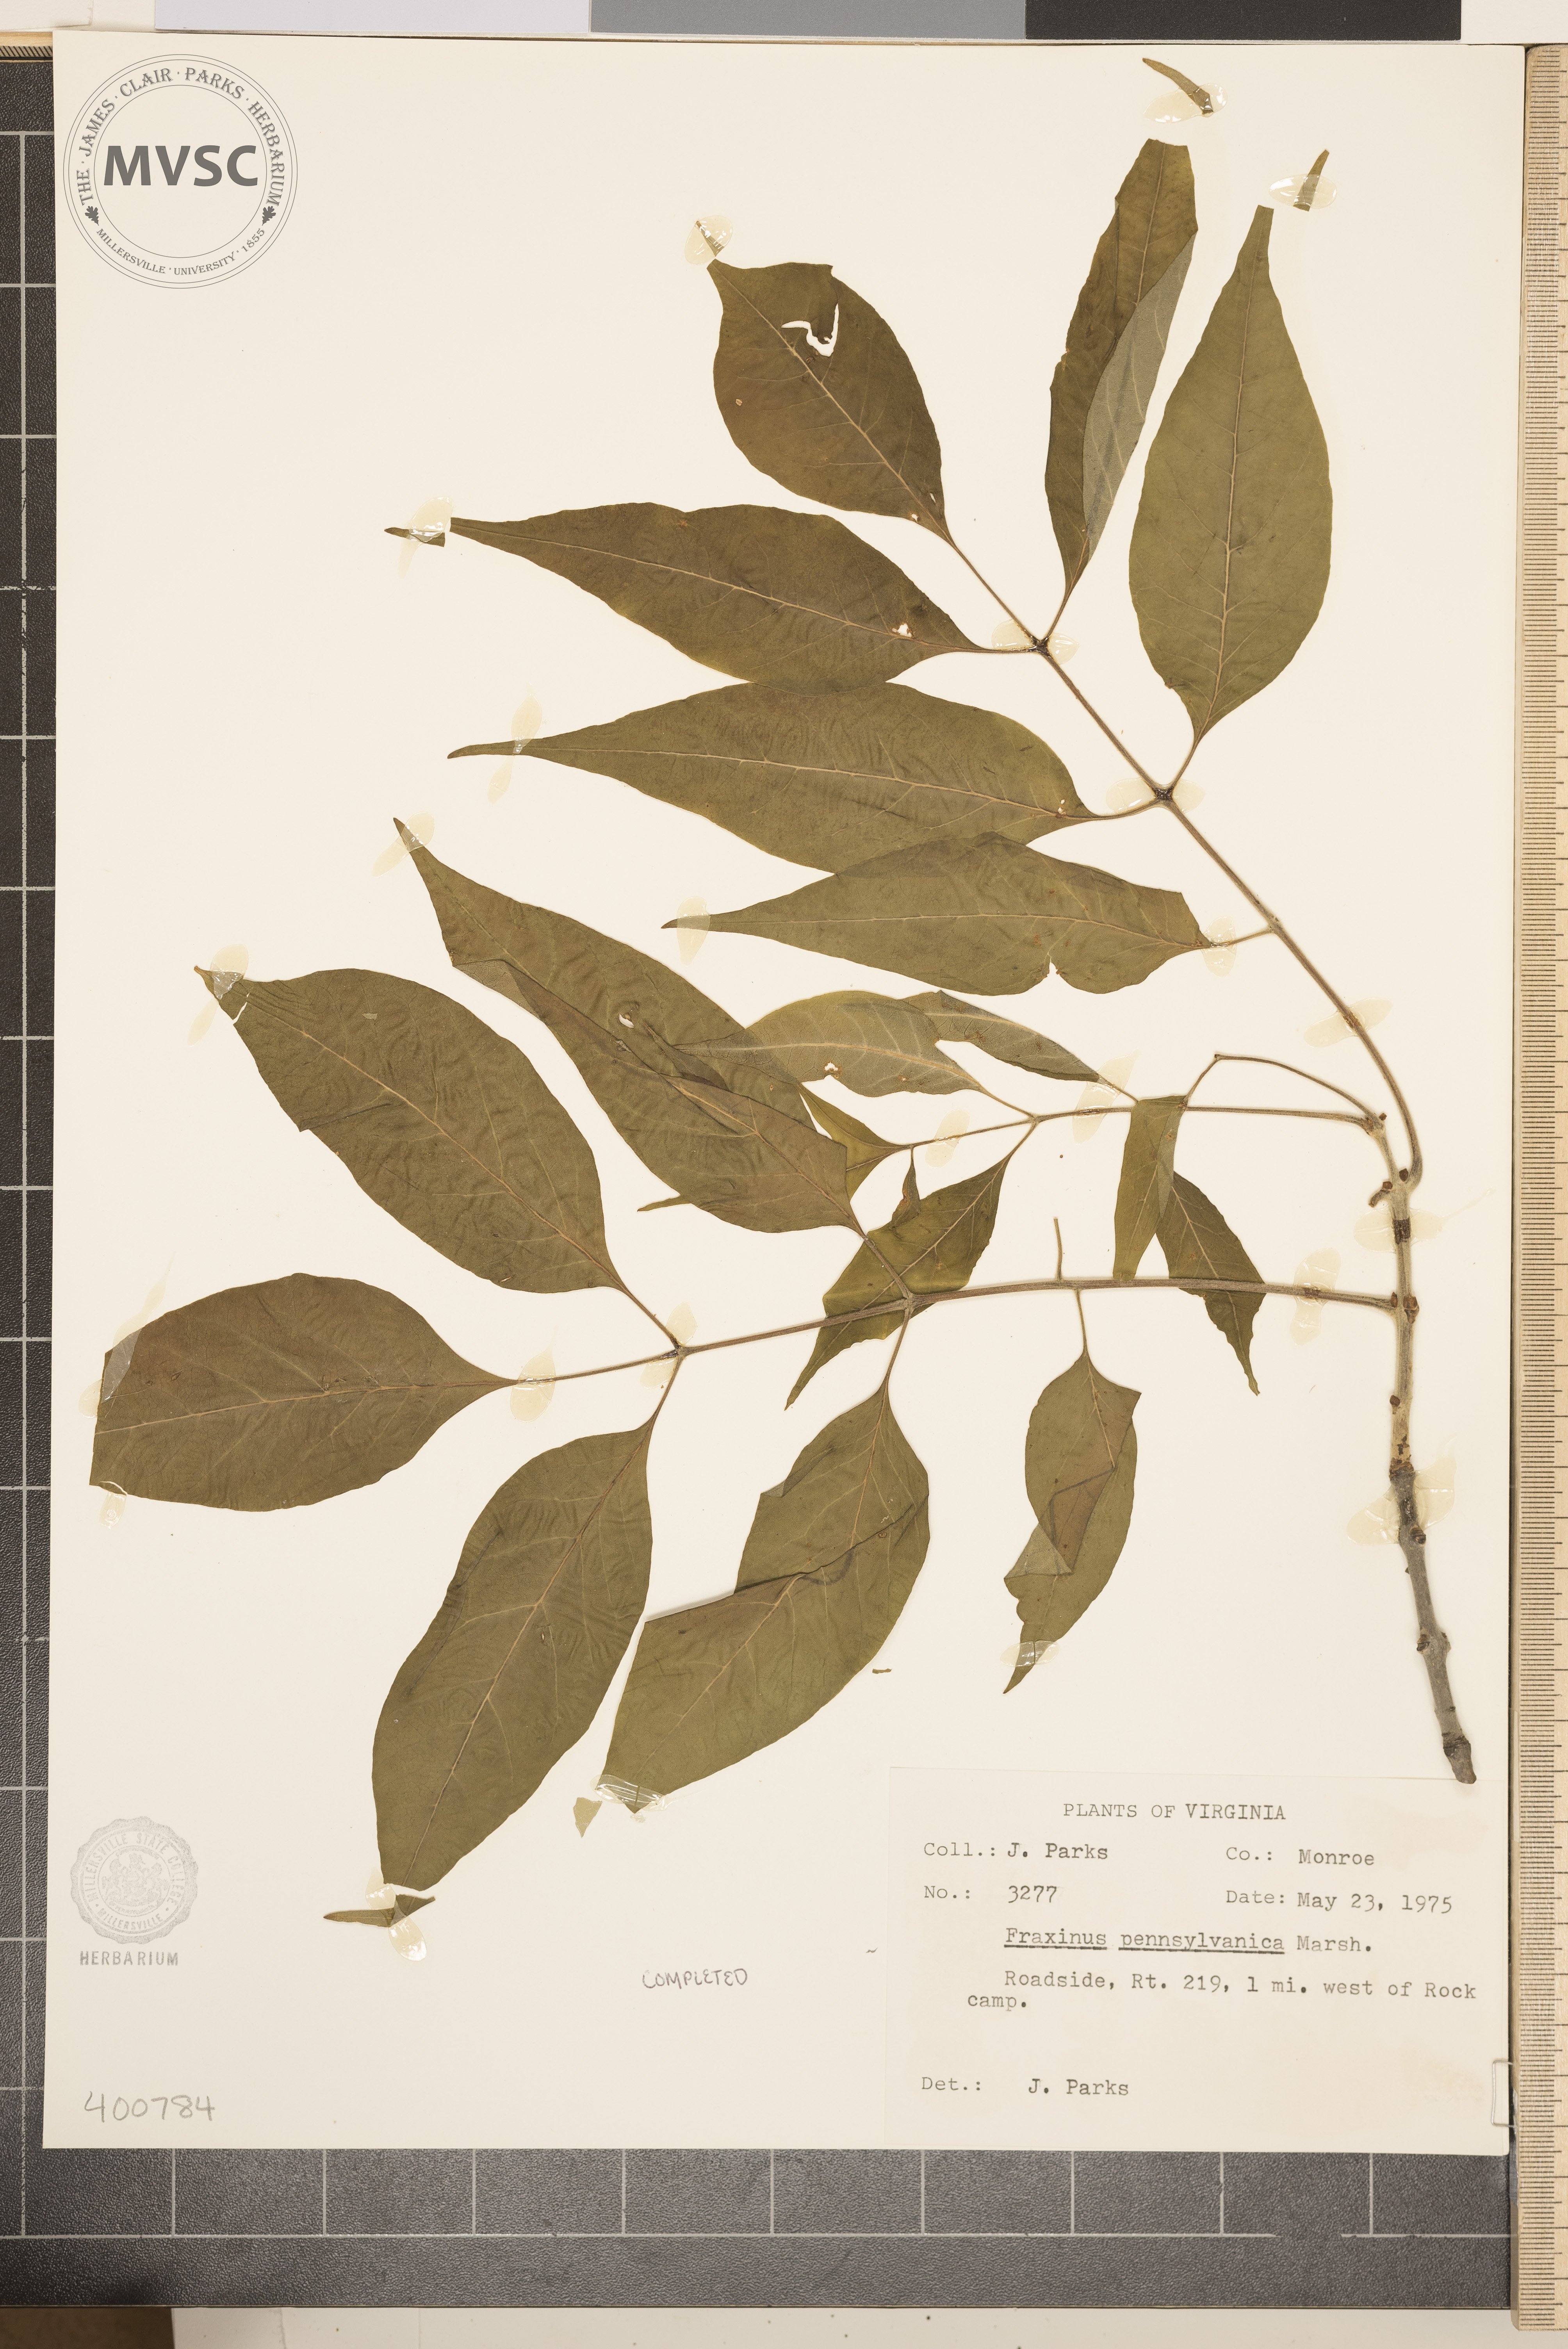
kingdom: Plantae
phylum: Tracheophyta
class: Magnoliopsida
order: Lamiales
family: Oleaceae
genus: Fraxinus
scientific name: Fraxinus pennsylvanica
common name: ash
